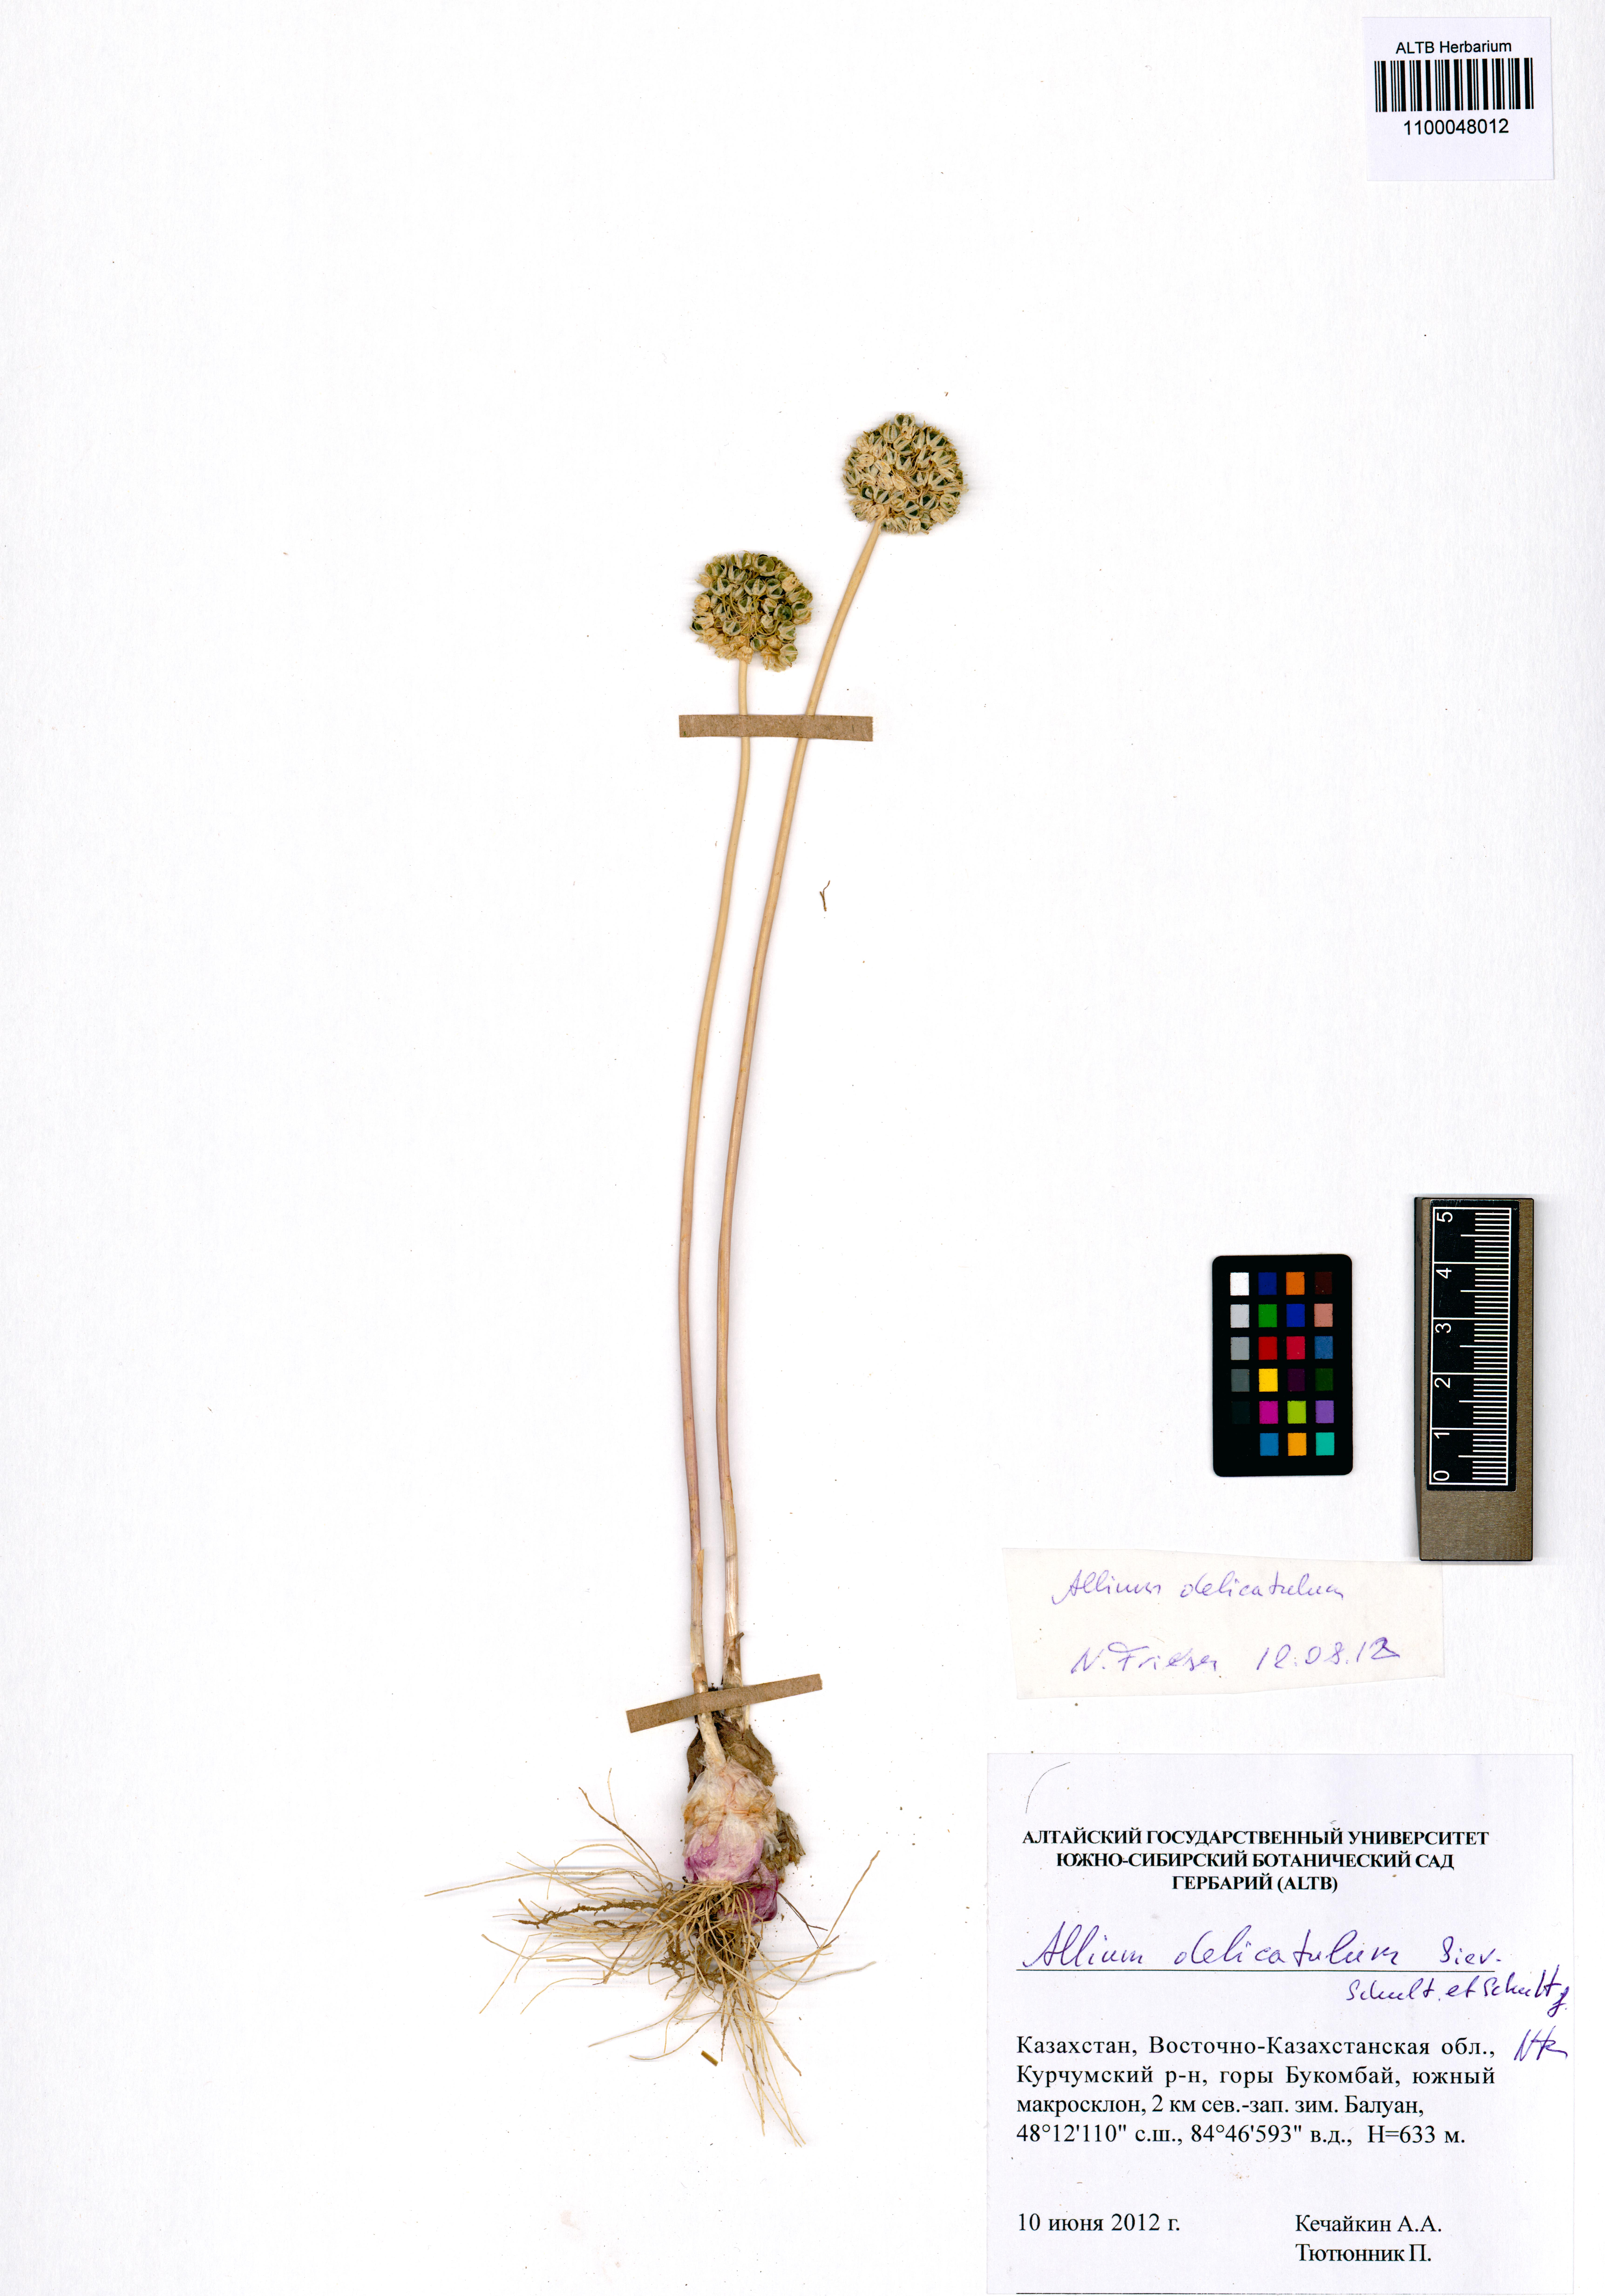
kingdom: Plantae
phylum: Tracheophyta
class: Liliopsida
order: Asparagales
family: Amaryllidaceae
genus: Allium
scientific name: Allium delicatulum
